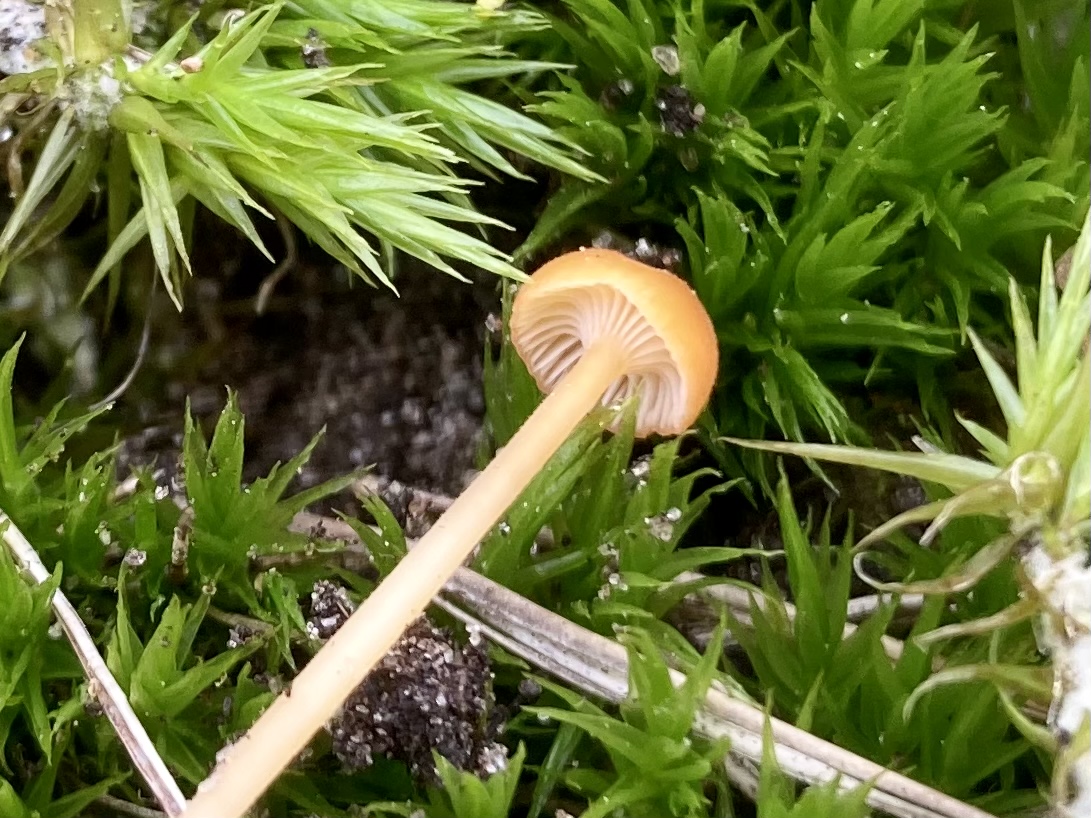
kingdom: Fungi
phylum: Basidiomycota
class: Agaricomycetes
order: Hymenochaetales
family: Rickenellaceae
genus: Rickenella
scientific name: Rickenella fibula
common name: orange mosnavlehat
